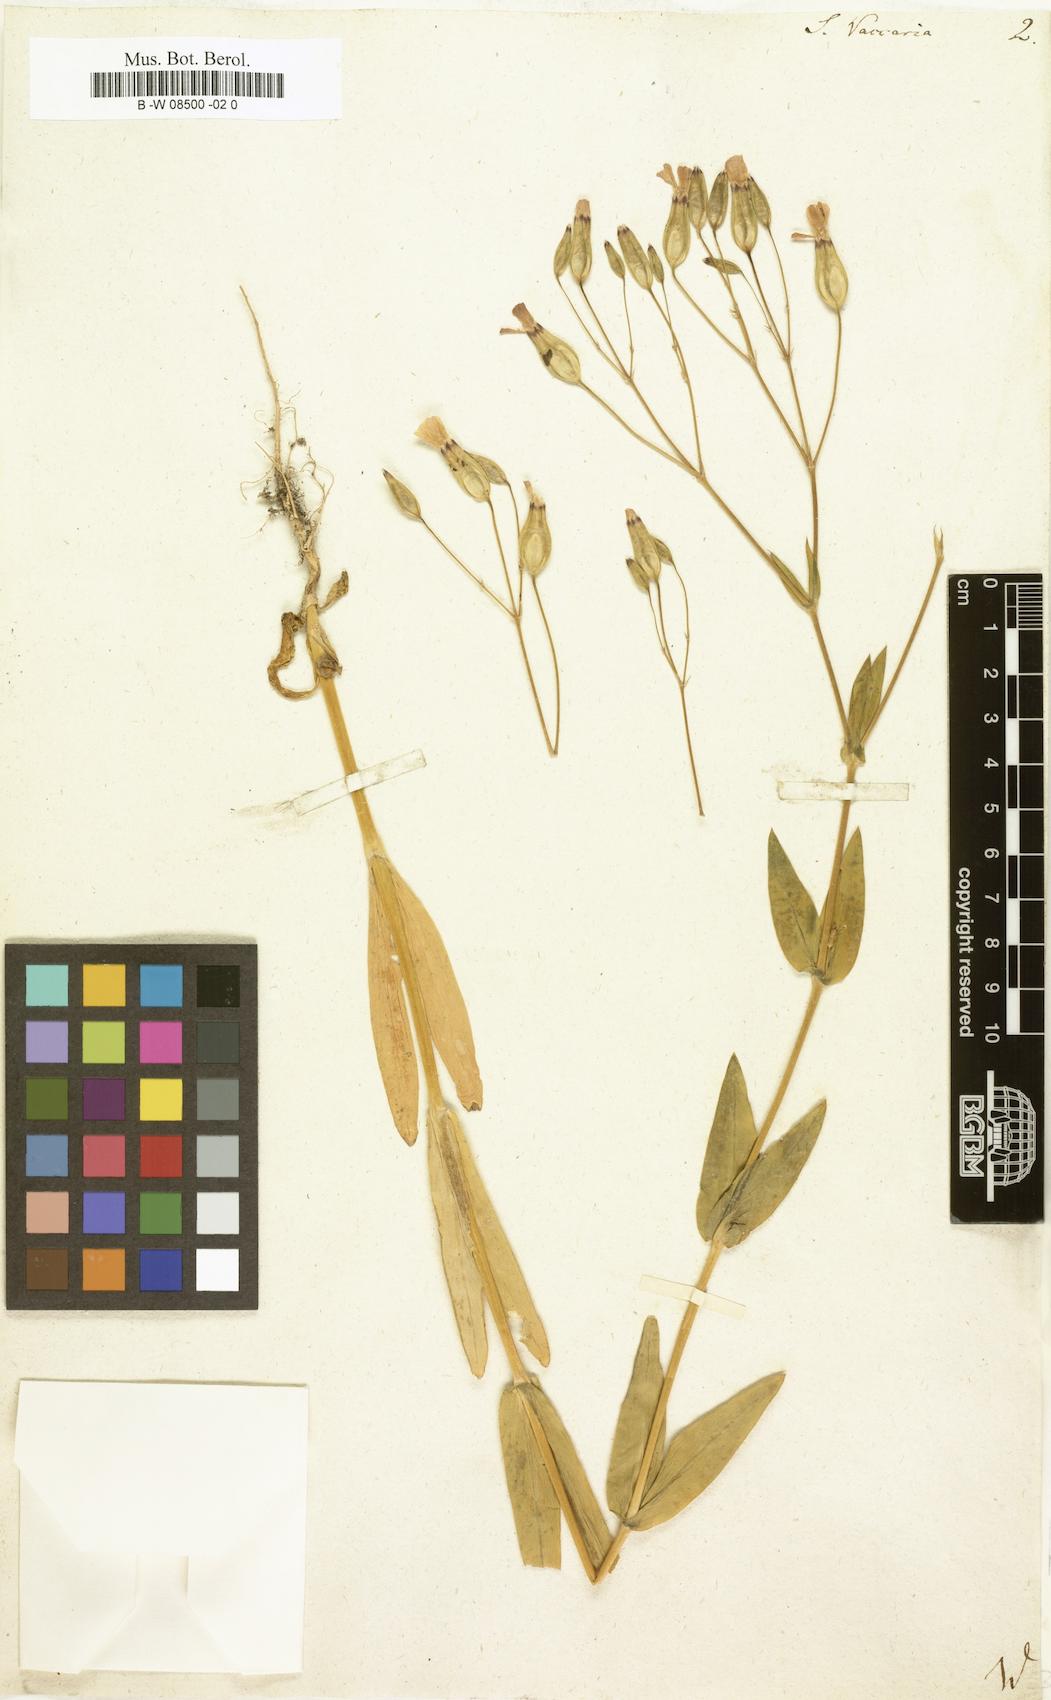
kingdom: Plantae
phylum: Tracheophyta
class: Magnoliopsida
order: Caryophyllales
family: Caryophyllaceae
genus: Gypsophila
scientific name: Gypsophila vaccaria
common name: Cow soapwort
